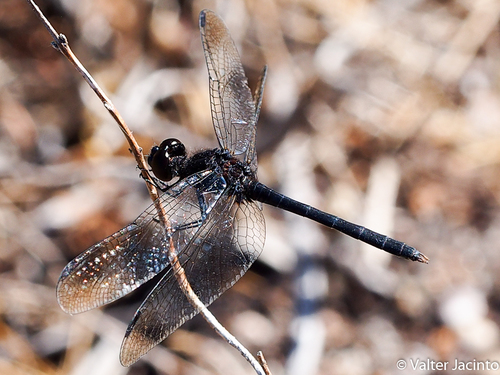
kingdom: Animalia
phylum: Arthropoda
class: Insecta
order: Odonata
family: Libellulidae
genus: Diplacodes
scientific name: Diplacodes lefebvrii
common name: Black percher
